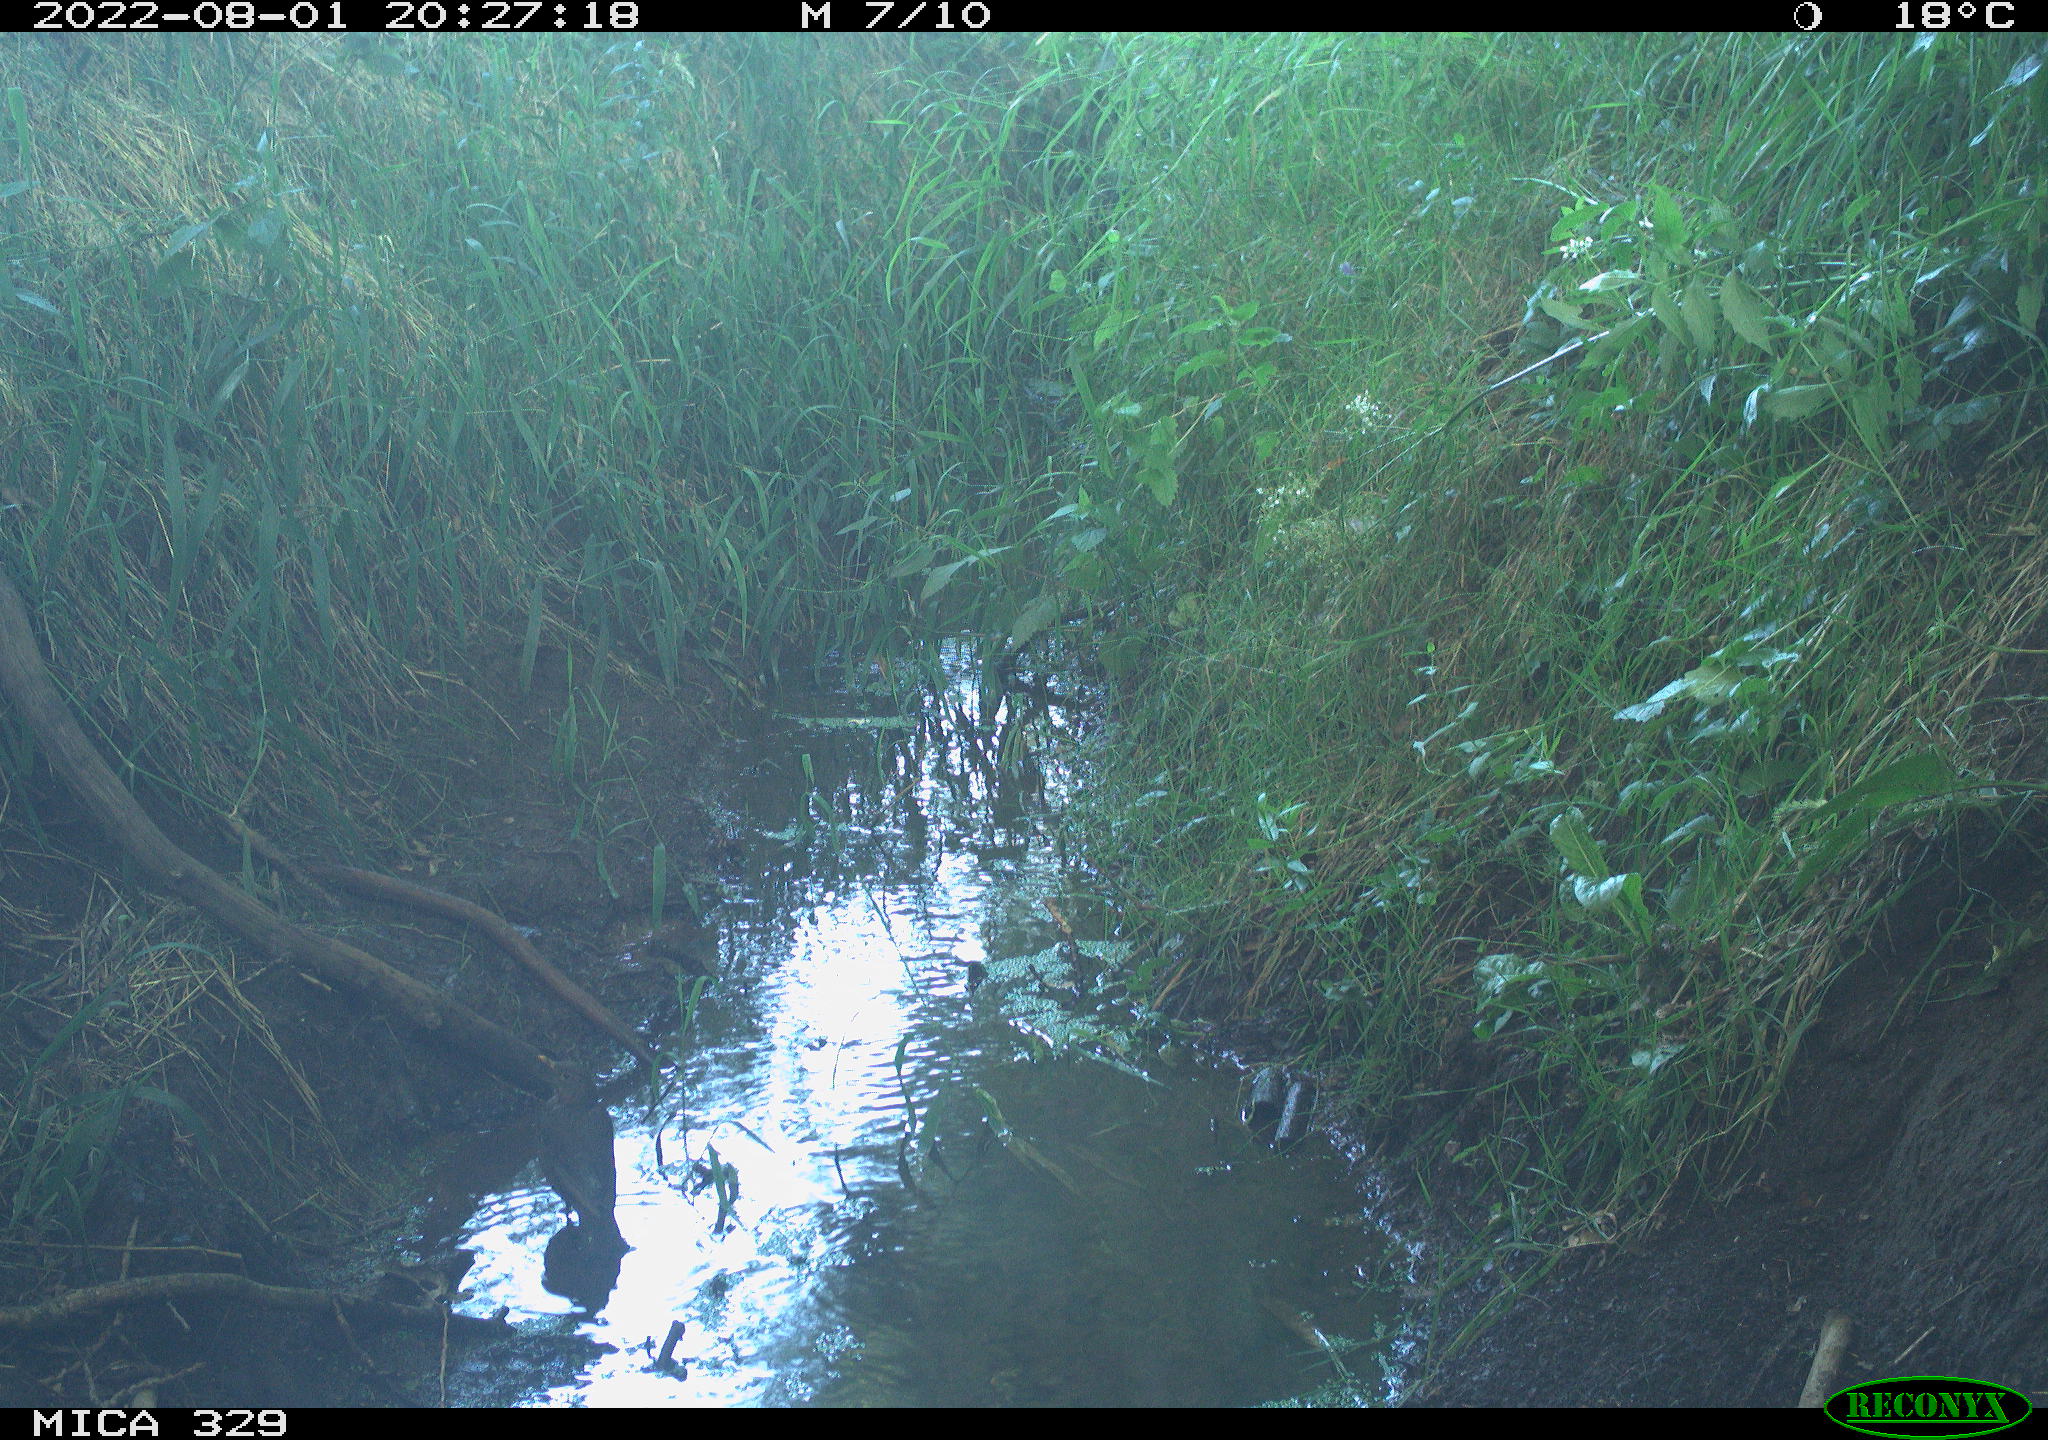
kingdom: Animalia
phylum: Chordata
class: Aves
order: Passeriformes
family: Turdidae
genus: Turdus
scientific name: Turdus merula
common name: Common blackbird
